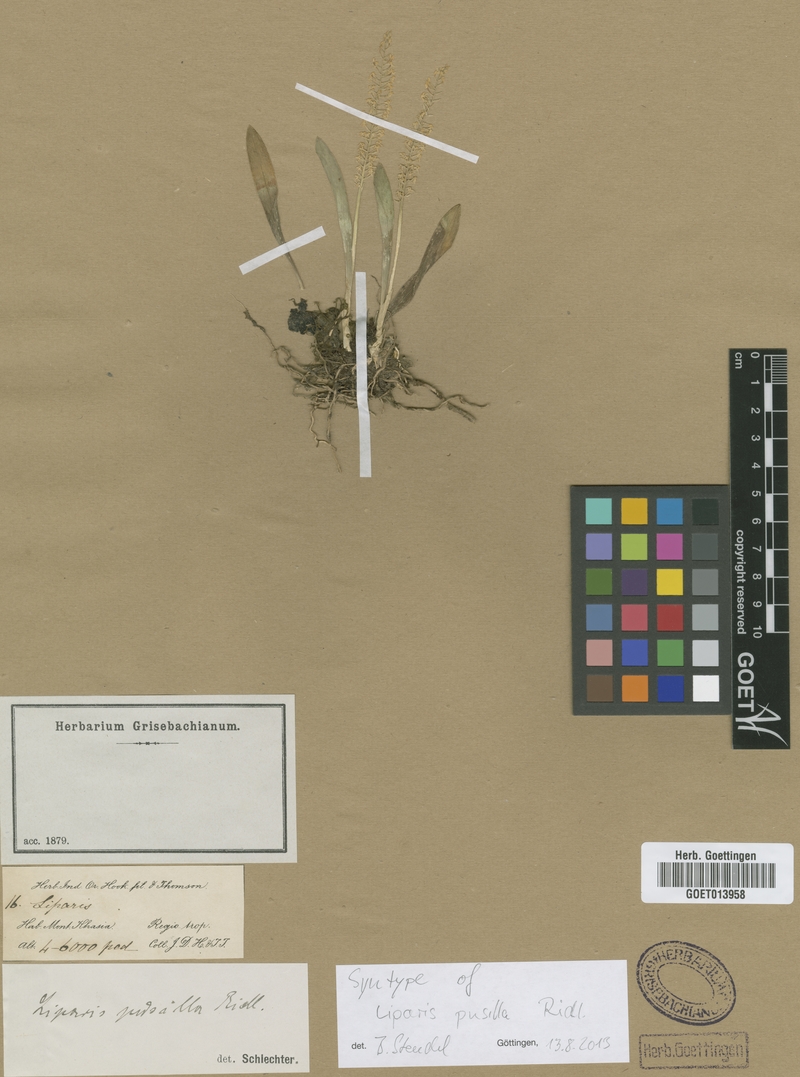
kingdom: Plantae
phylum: Tracheophyta
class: Liliopsida
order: Asparagales
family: Orchidaceae
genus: Liparis
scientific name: Liparis caespitosa
